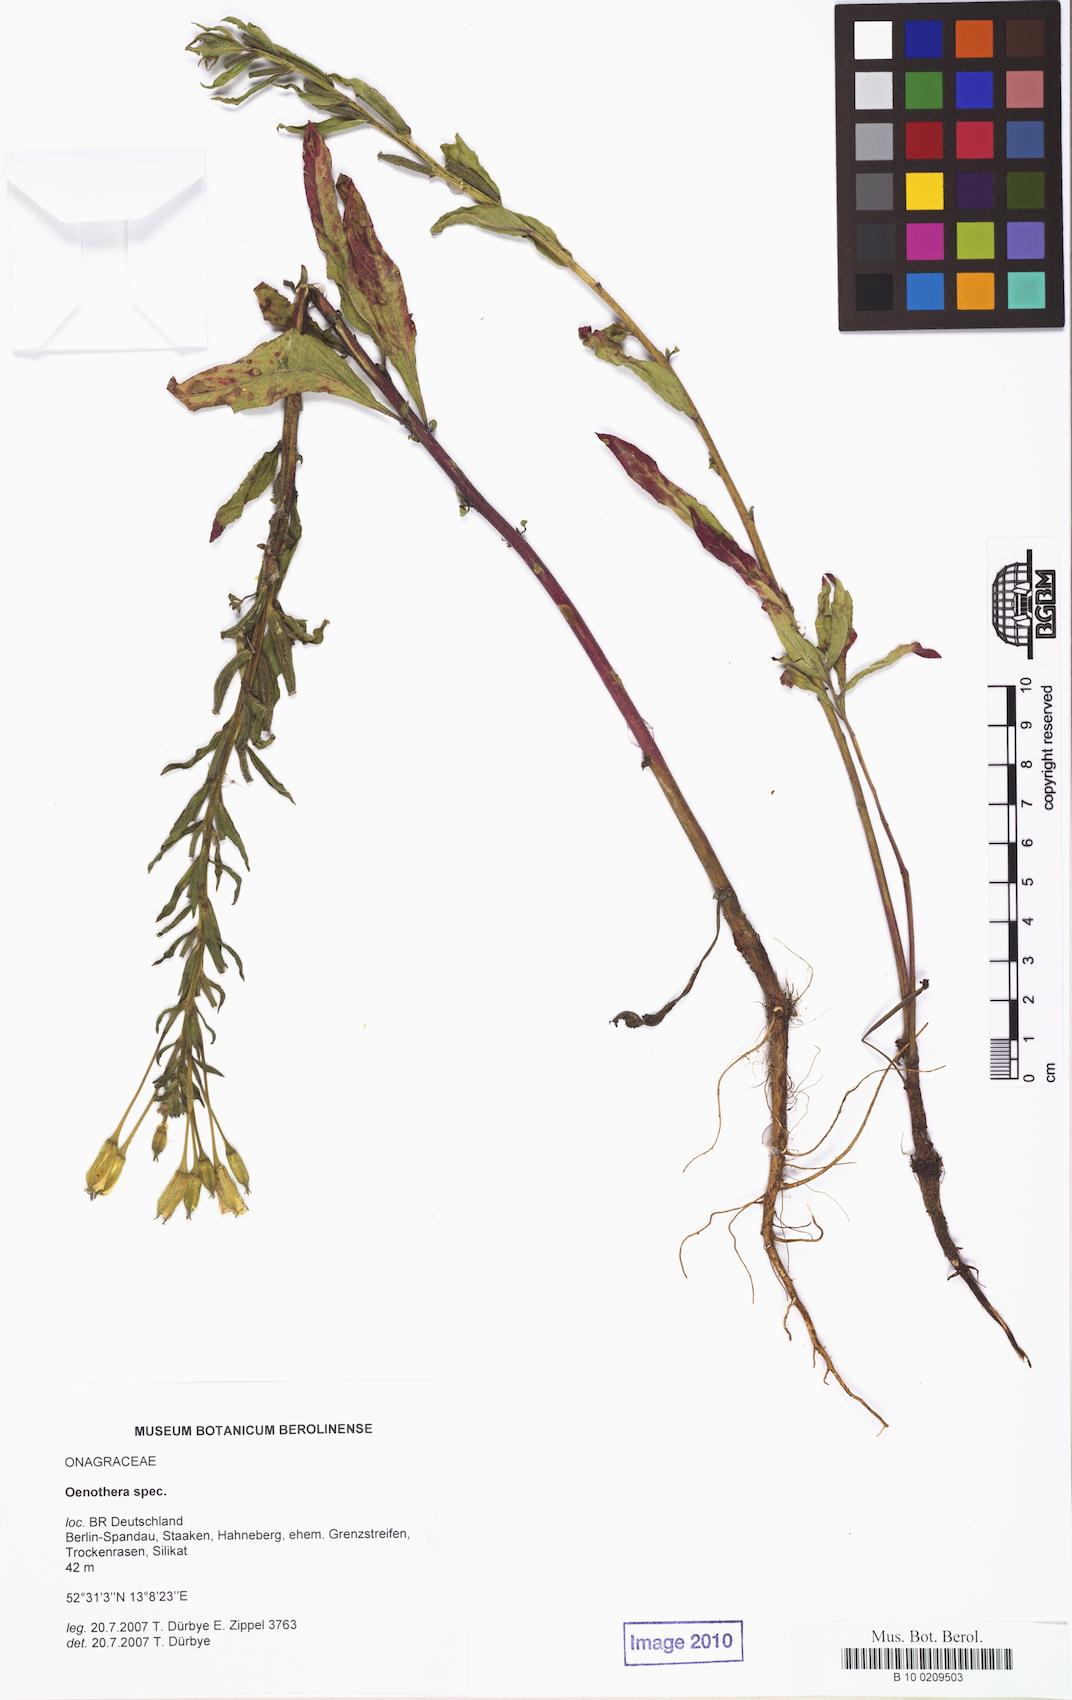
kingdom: Plantae
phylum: Tracheophyta
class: Magnoliopsida
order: Myrtales
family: Onagraceae
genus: Oenothera
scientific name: Oenothera
